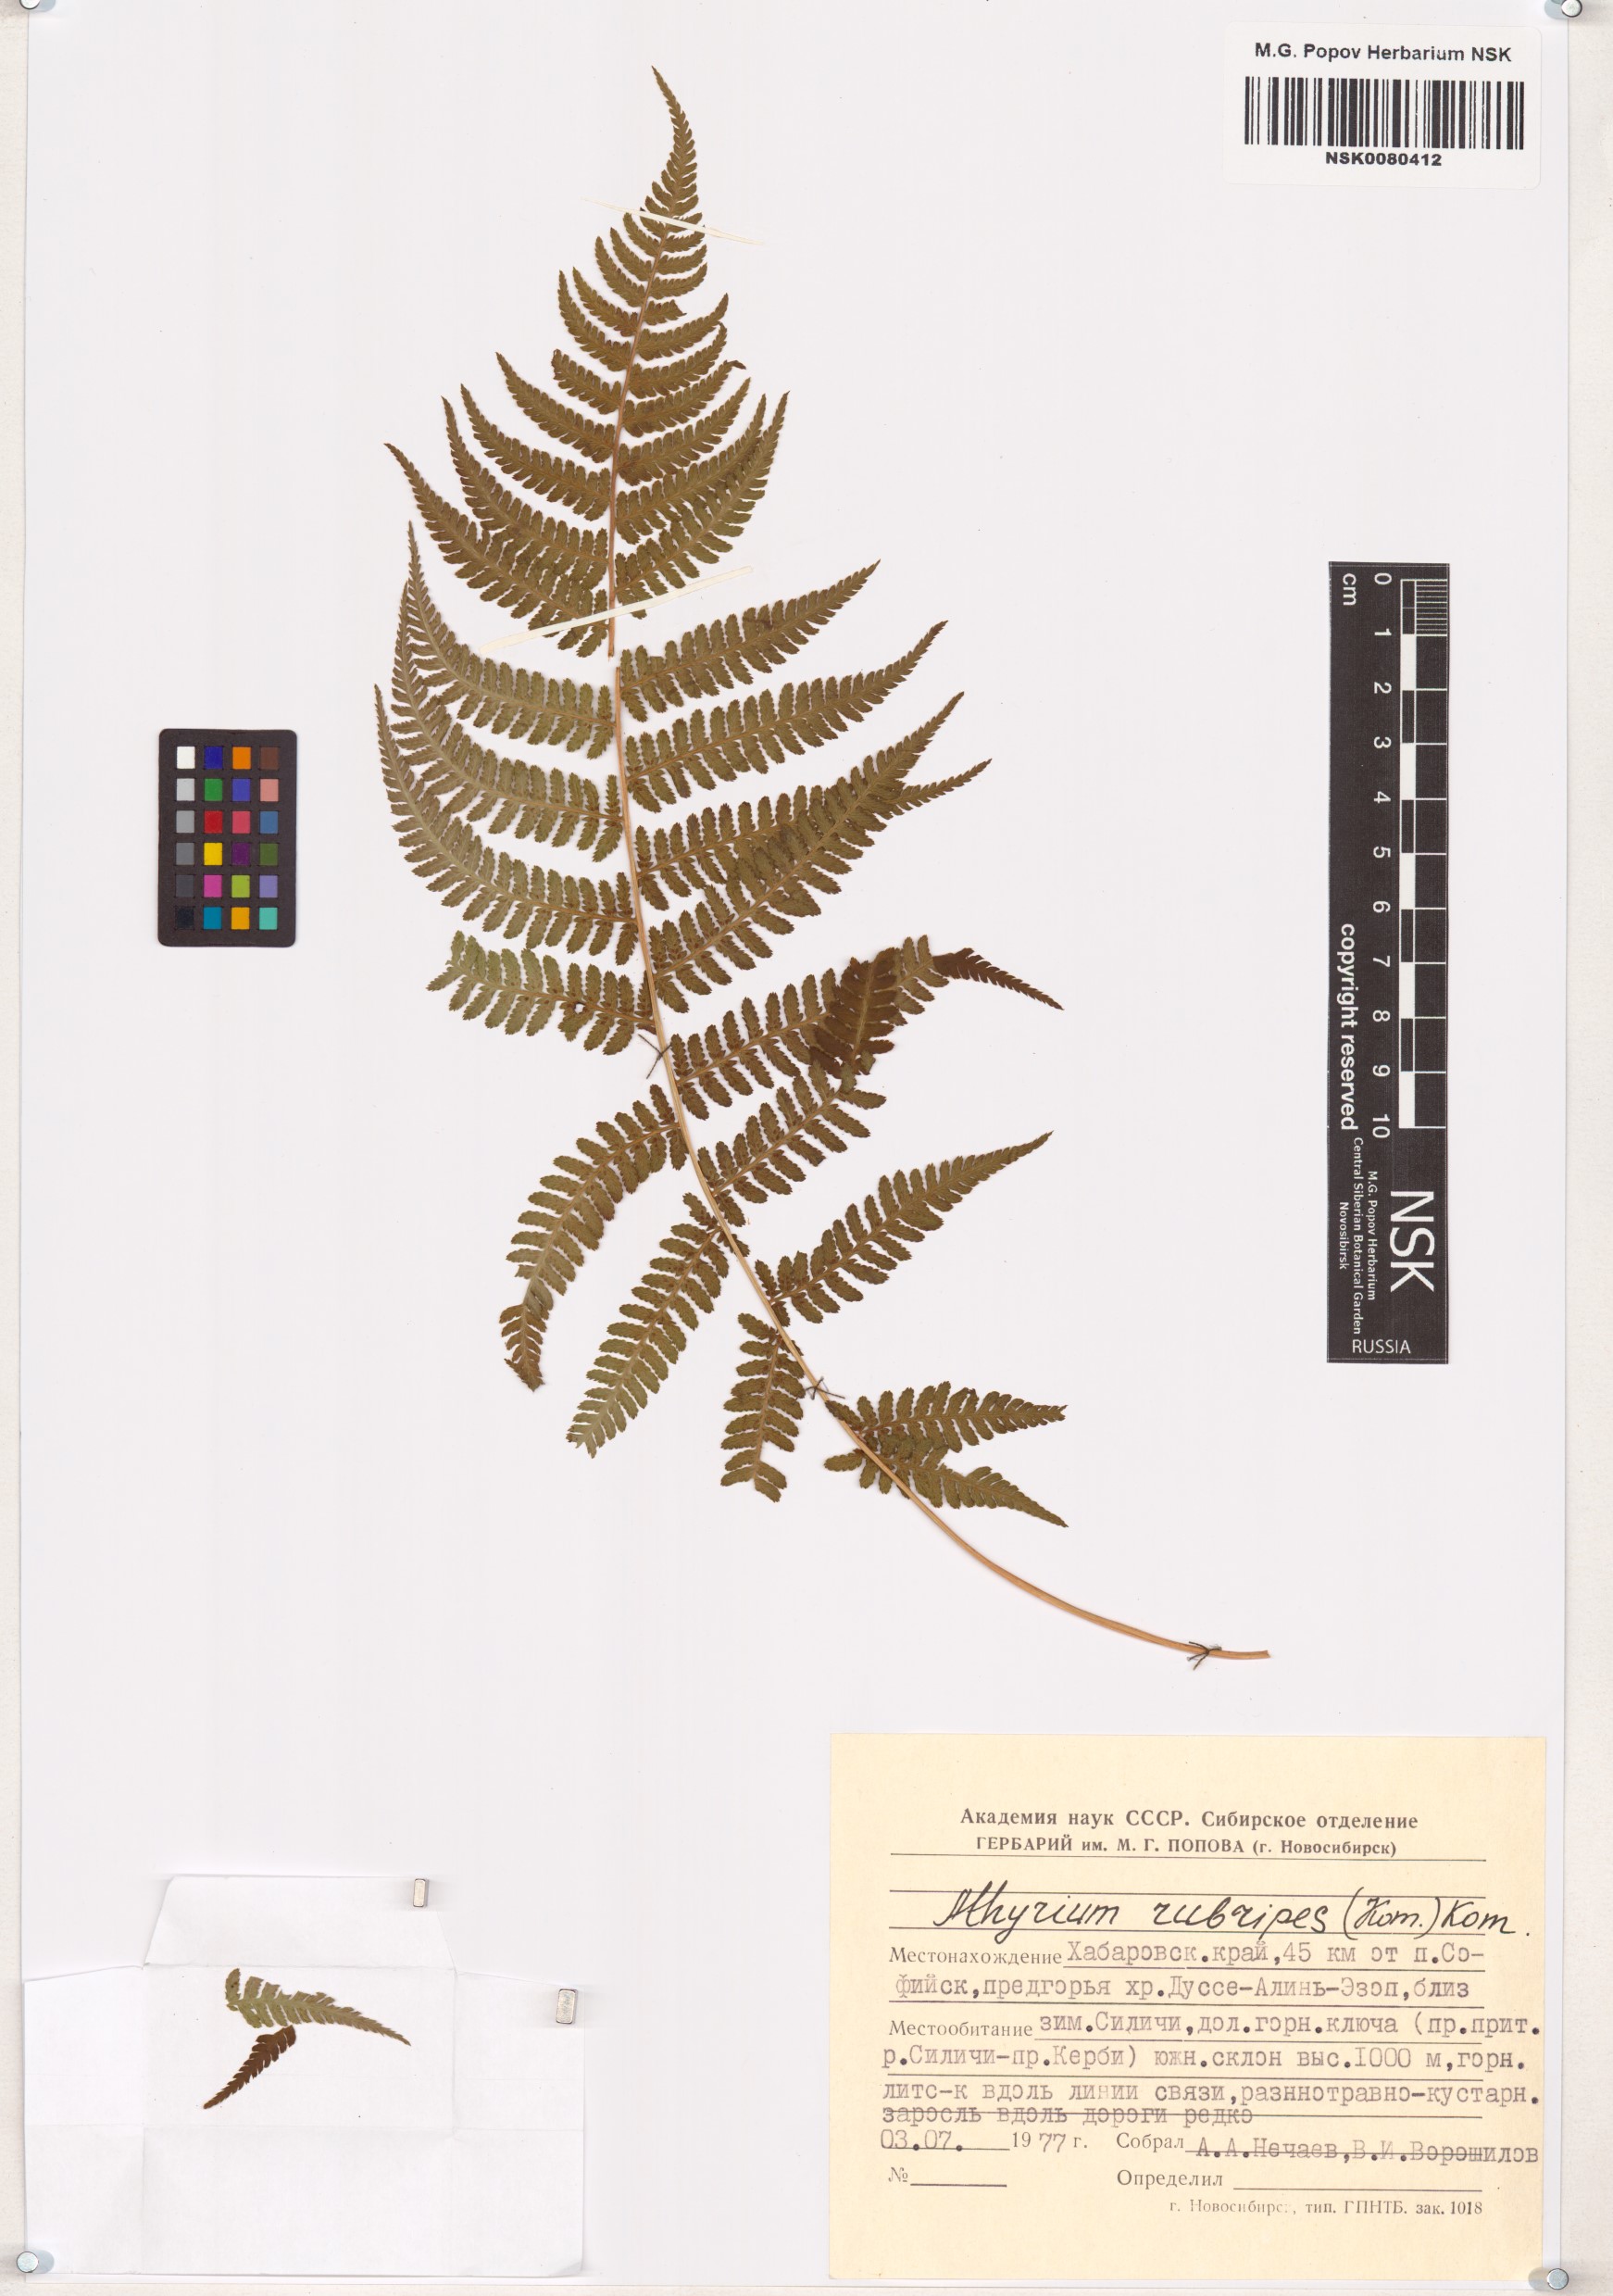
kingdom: Plantae
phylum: Tracheophyta
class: Polypodiopsida
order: Polypodiales
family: Athyriaceae
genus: Athyrium
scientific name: Athyrium rubripes
